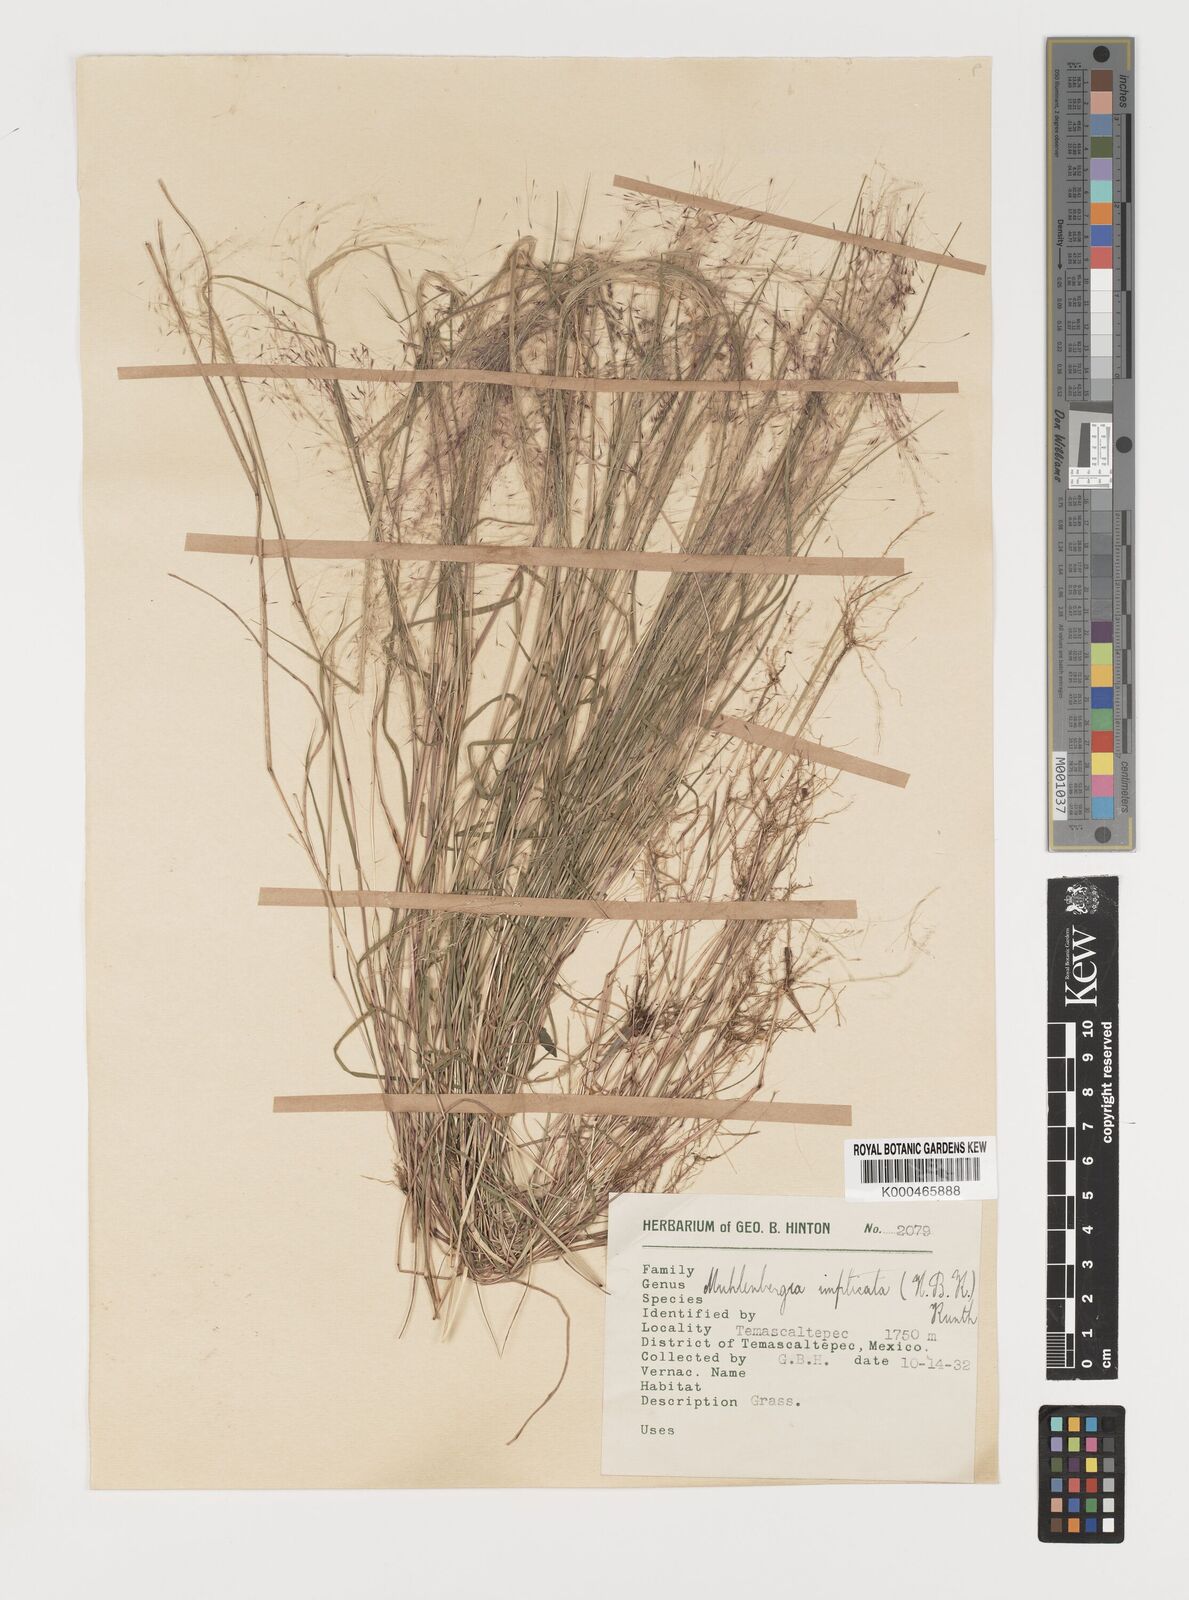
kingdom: Plantae
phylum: Tracheophyta
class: Liliopsida
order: Poales
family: Poaceae
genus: Muhlenbergia
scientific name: Muhlenbergia implicata
